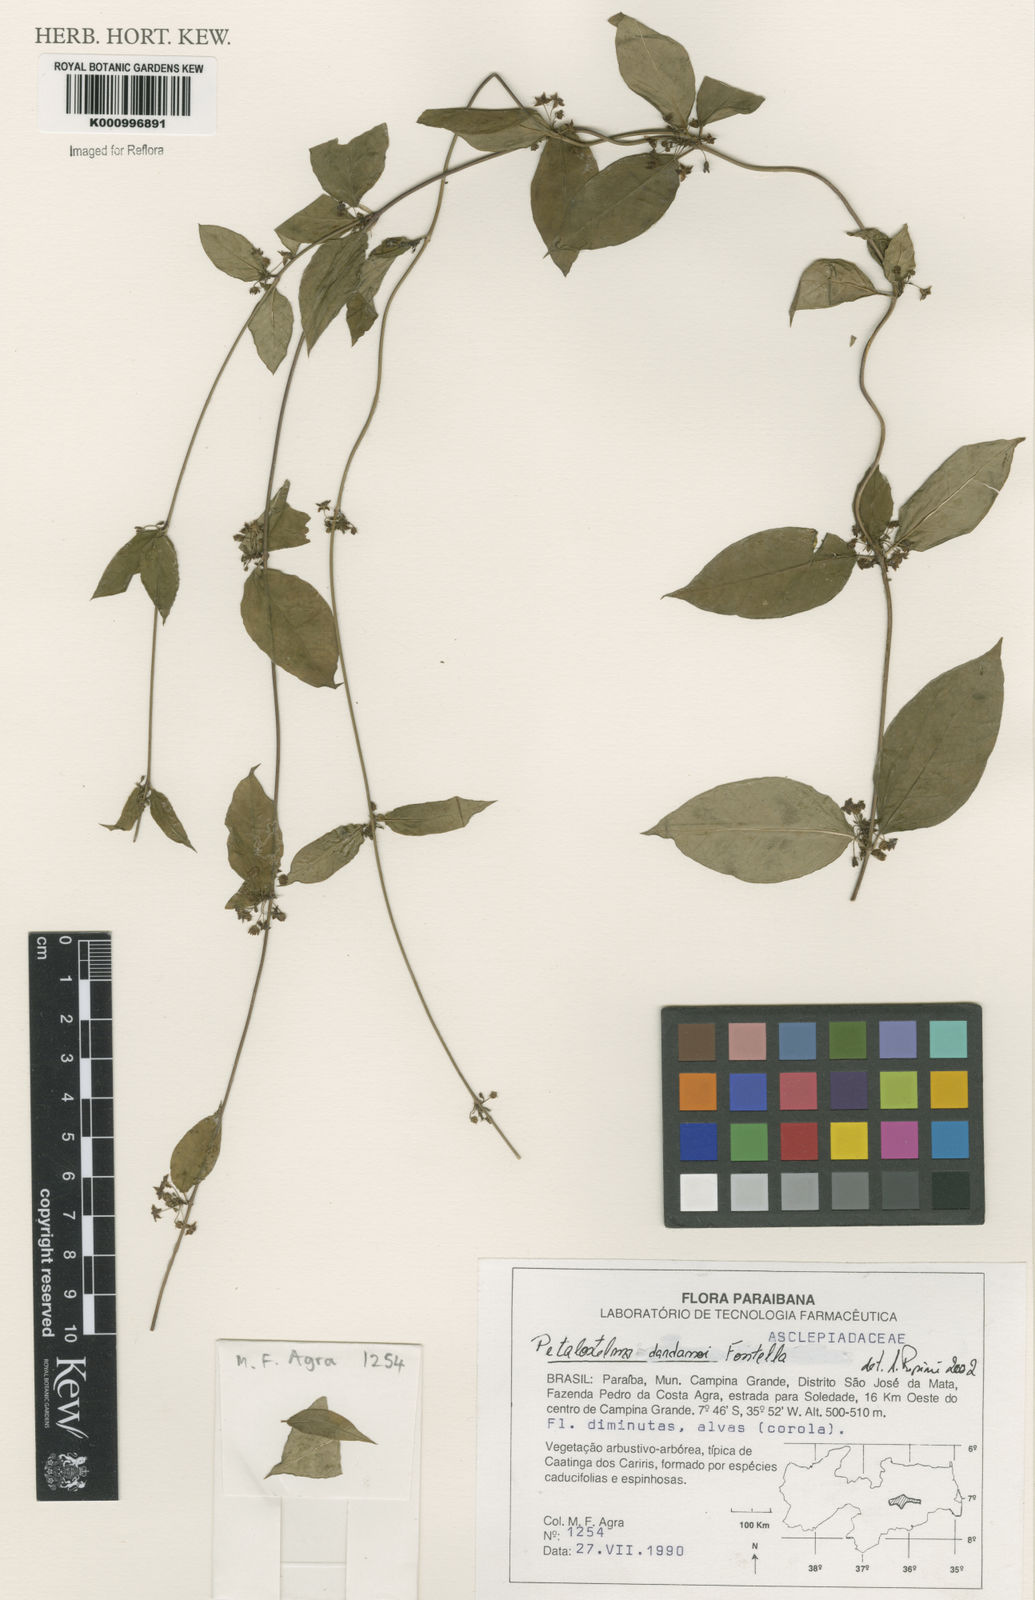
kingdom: Plantae
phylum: Tracheophyta
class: Magnoliopsida
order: Gentianales
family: Apocynaceae
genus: Petalostelma
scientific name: Petalostelma dardanoi
